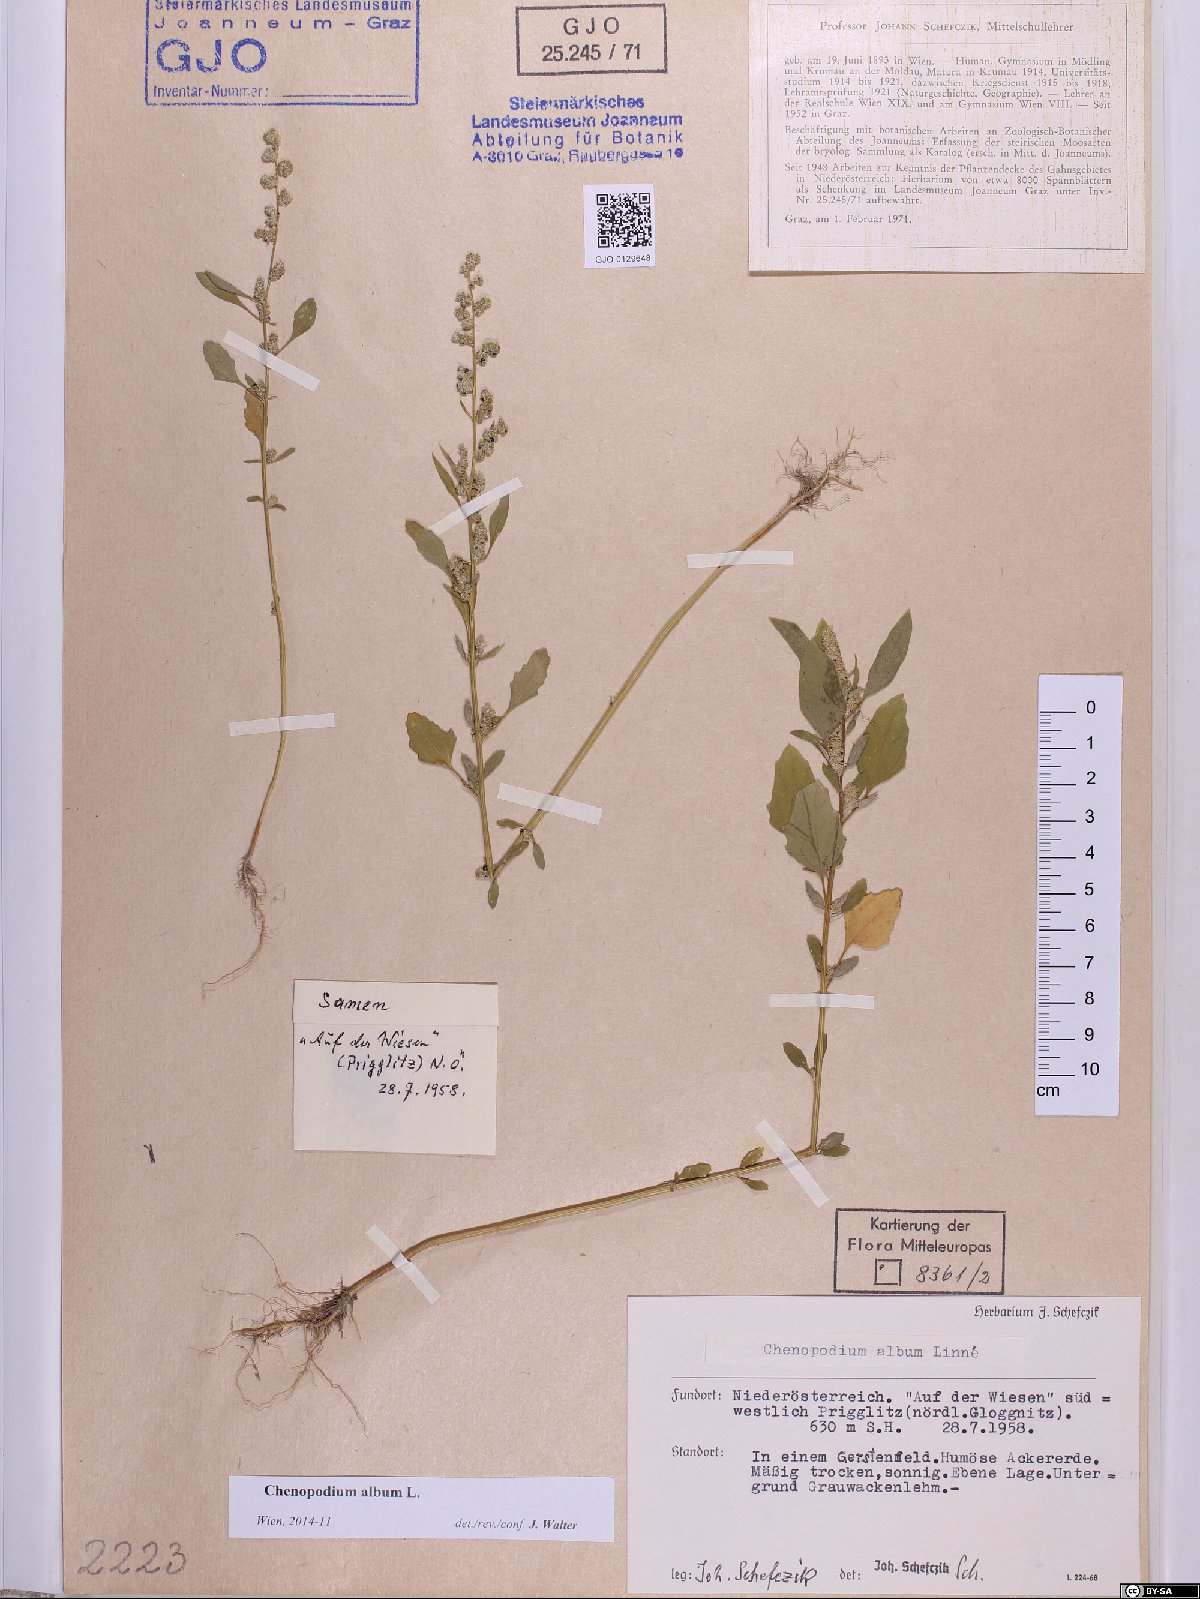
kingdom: Plantae
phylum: Tracheophyta
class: Magnoliopsida
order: Caryophyllales
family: Amaranthaceae
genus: Chenopodium
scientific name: Chenopodium album
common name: Fat-hen
